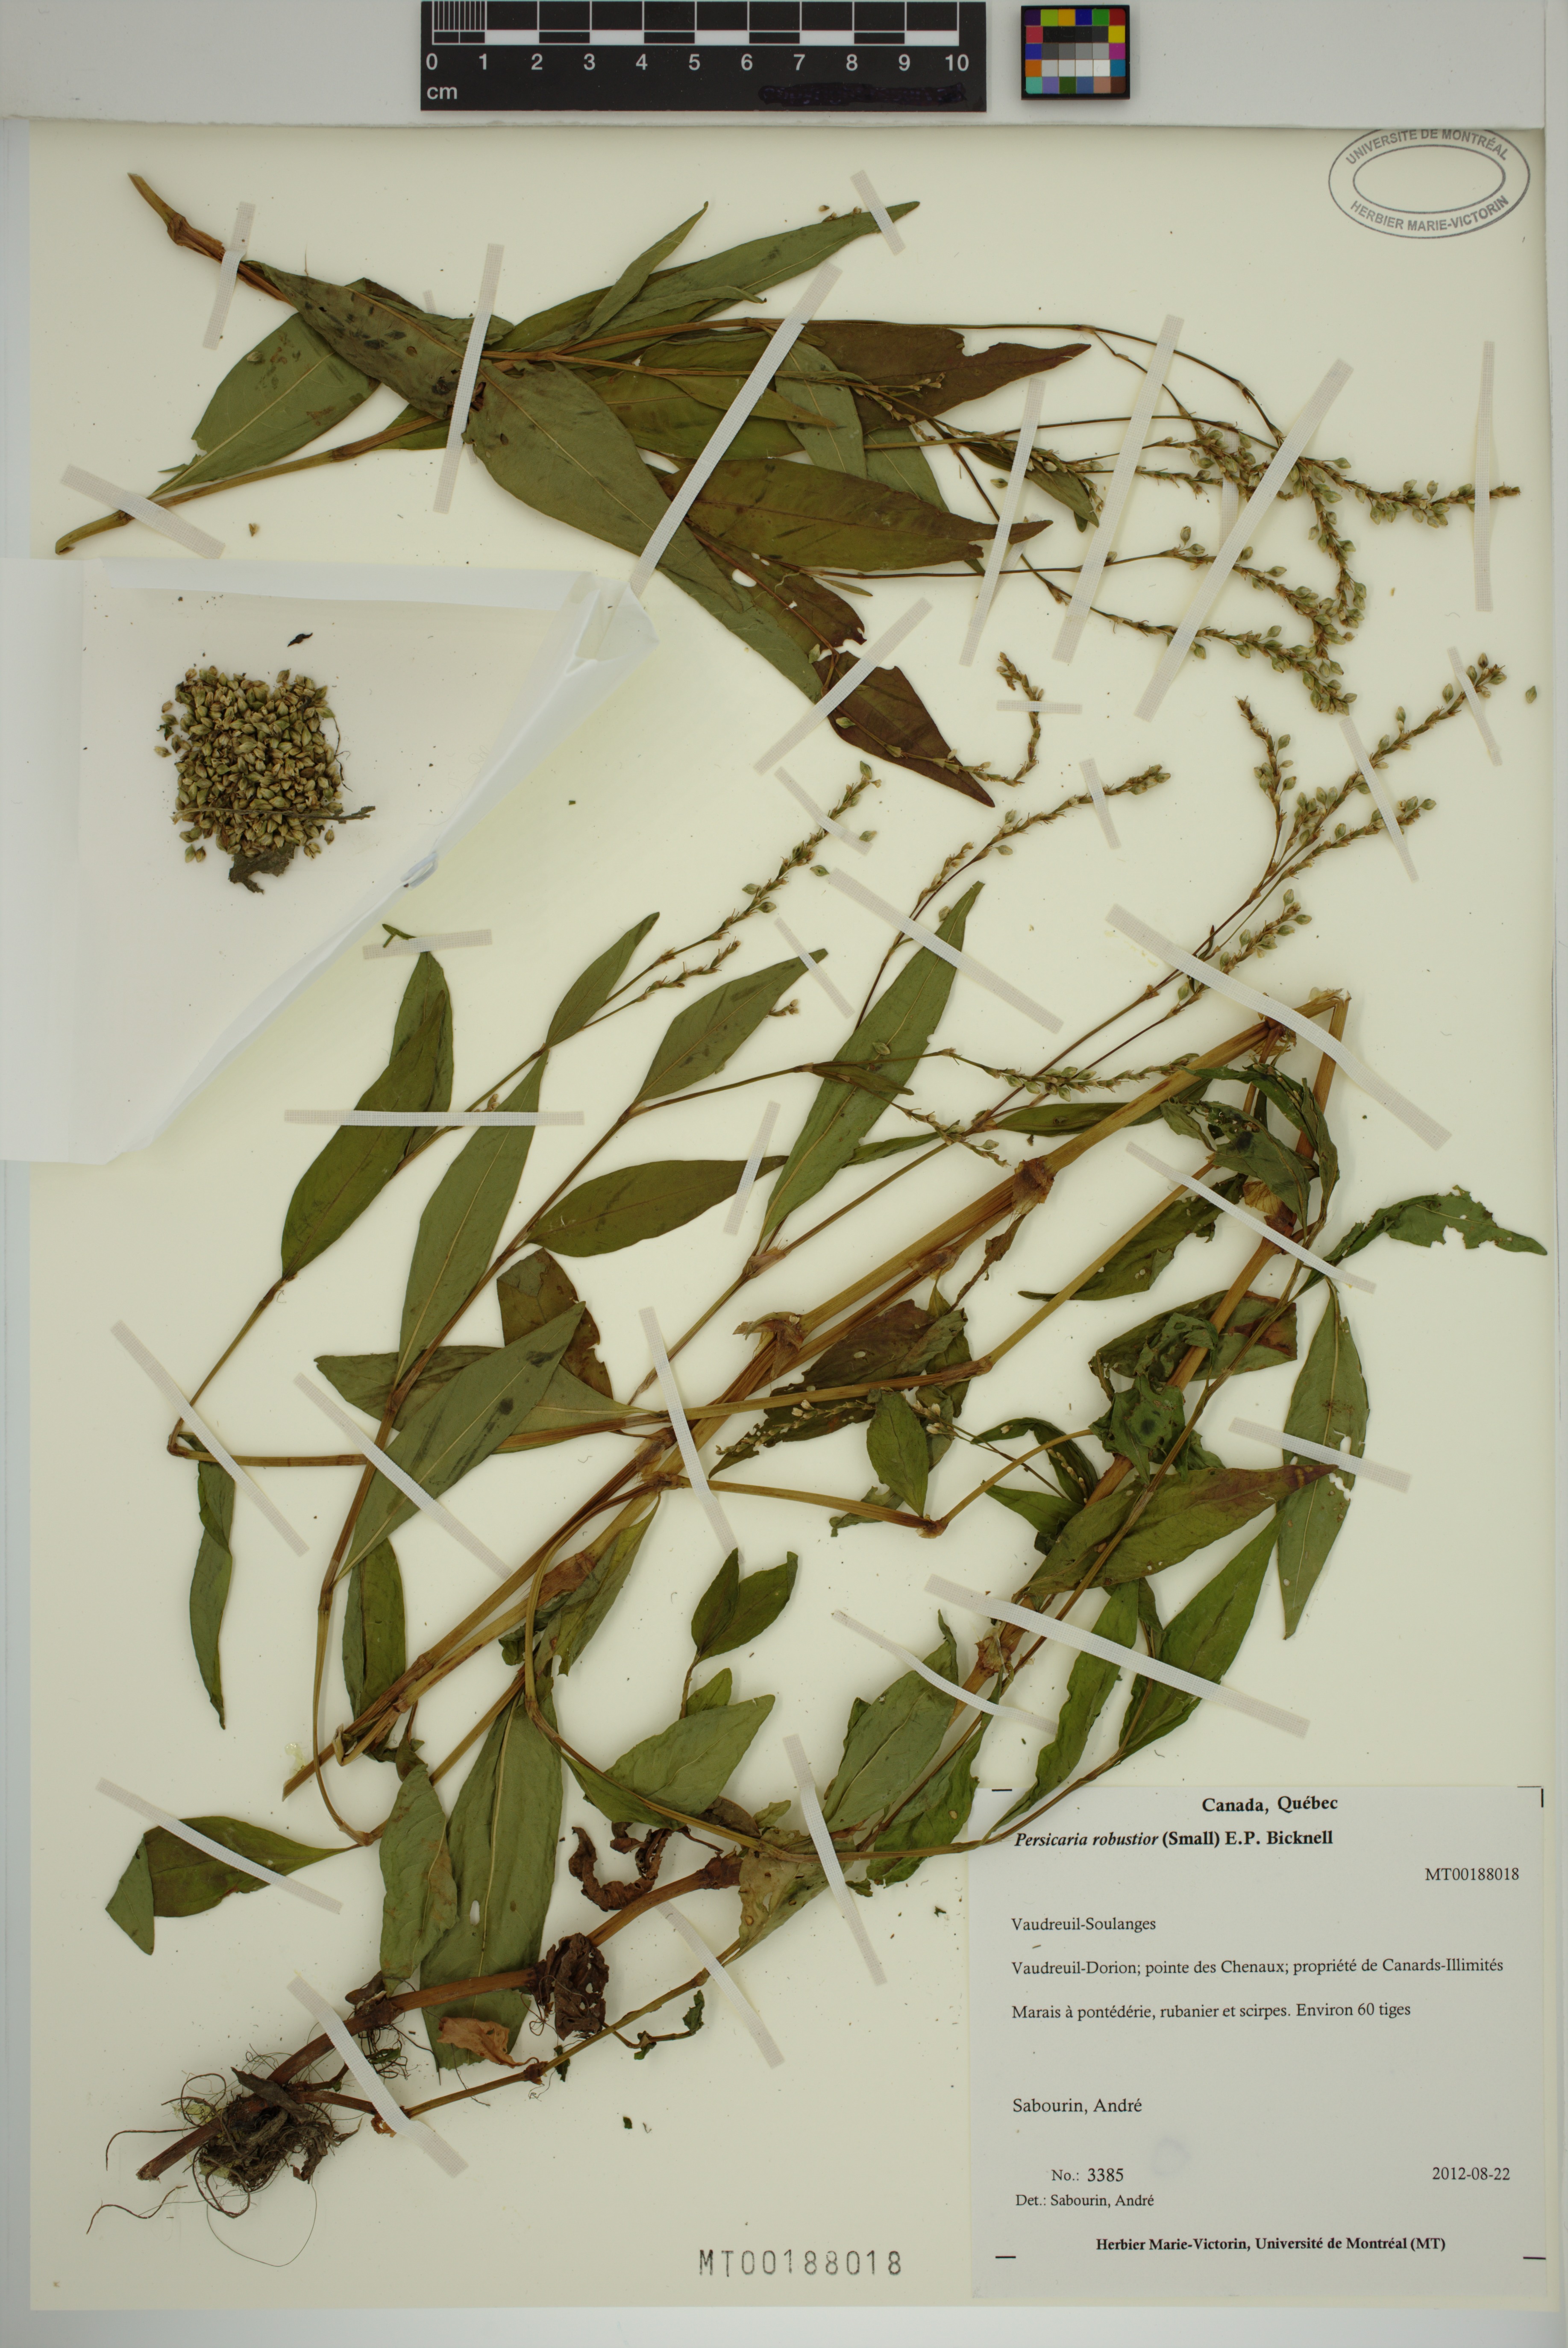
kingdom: Plantae
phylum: Tracheophyta
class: Magnoliopsida
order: Caryophyllales
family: Polygonaceae
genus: Persicaria
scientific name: Persicaria robustior
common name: Stout smartweed
